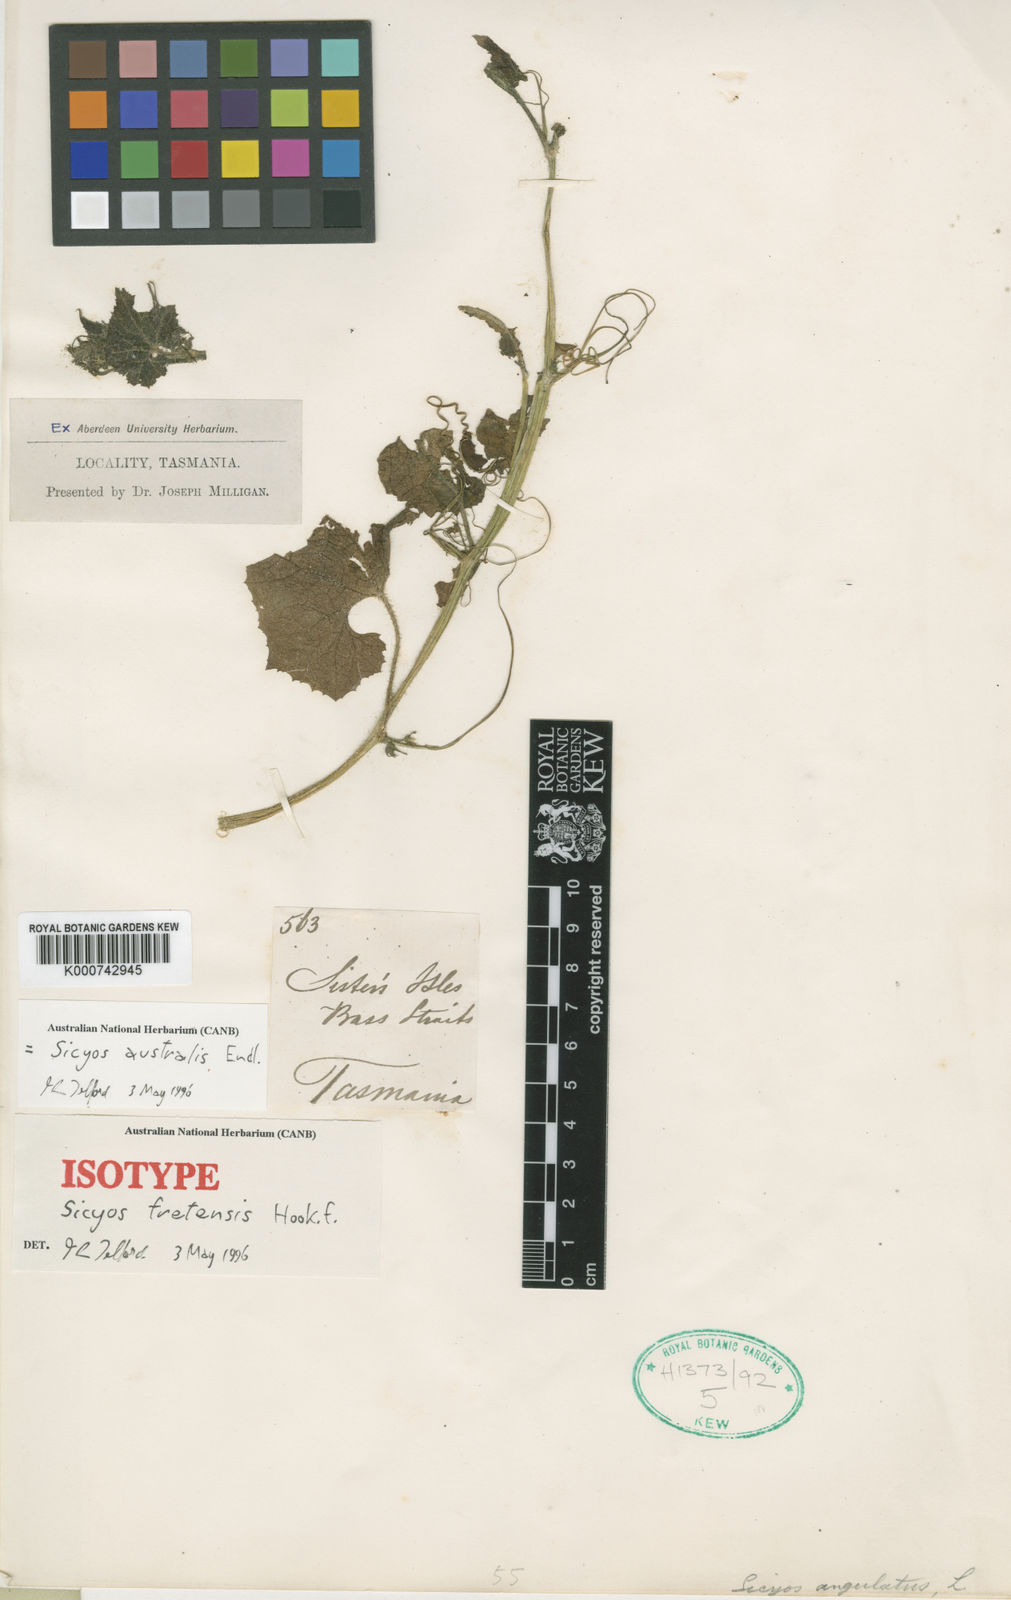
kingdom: Plantae
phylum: Tracheophyta
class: Magnoliopsida
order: Cucurbitales
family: Cucurbitaceae
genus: Sicyos
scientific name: Sicyos australis
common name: Angle-cucumber
